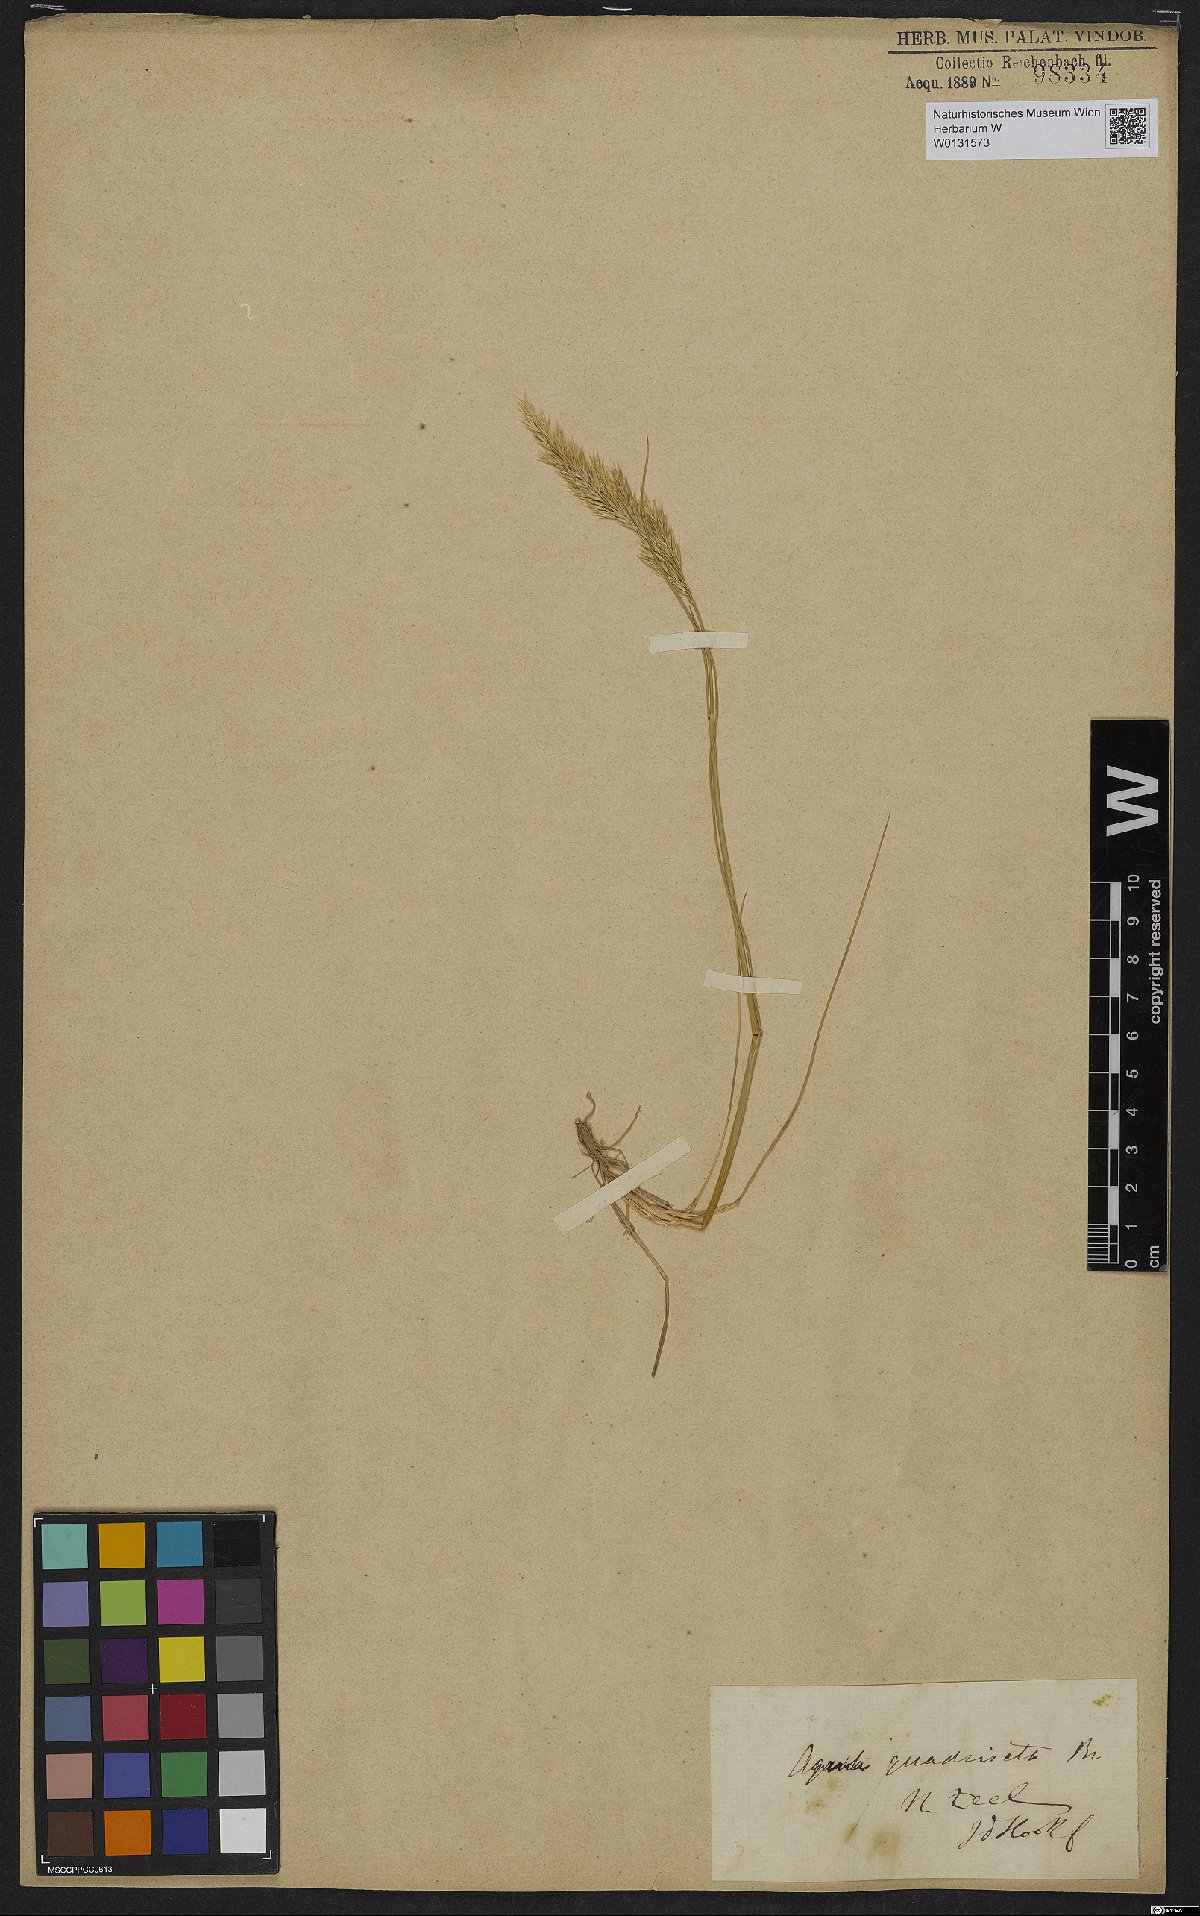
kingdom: Plantae
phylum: Tracheophyta
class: Liliopsida
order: Poales
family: Poaceae
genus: Calamagrostis
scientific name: Calamagrostis quadriseta
